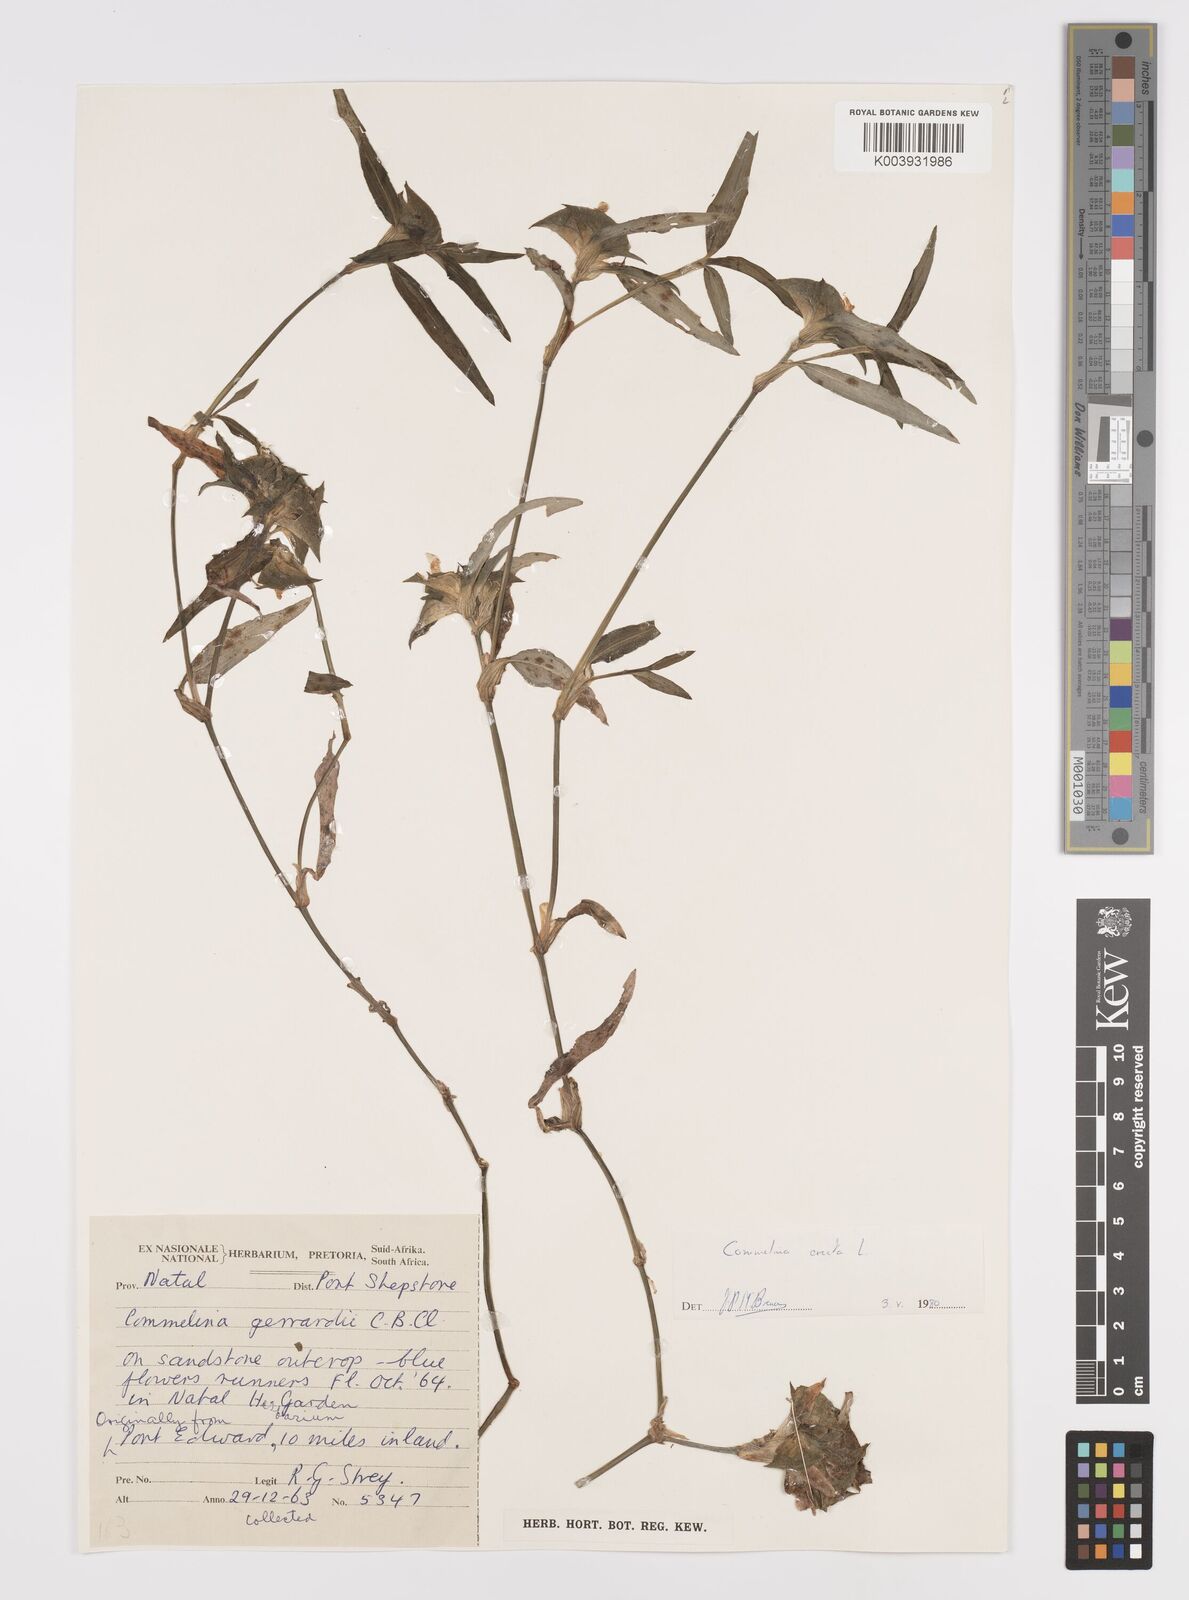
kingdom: Plantae
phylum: Tracheophyta
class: Liliopsida
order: Commelinales
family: Commelinaceae
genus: Commelina
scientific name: Commelina erecta
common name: Blousel blommetjie
